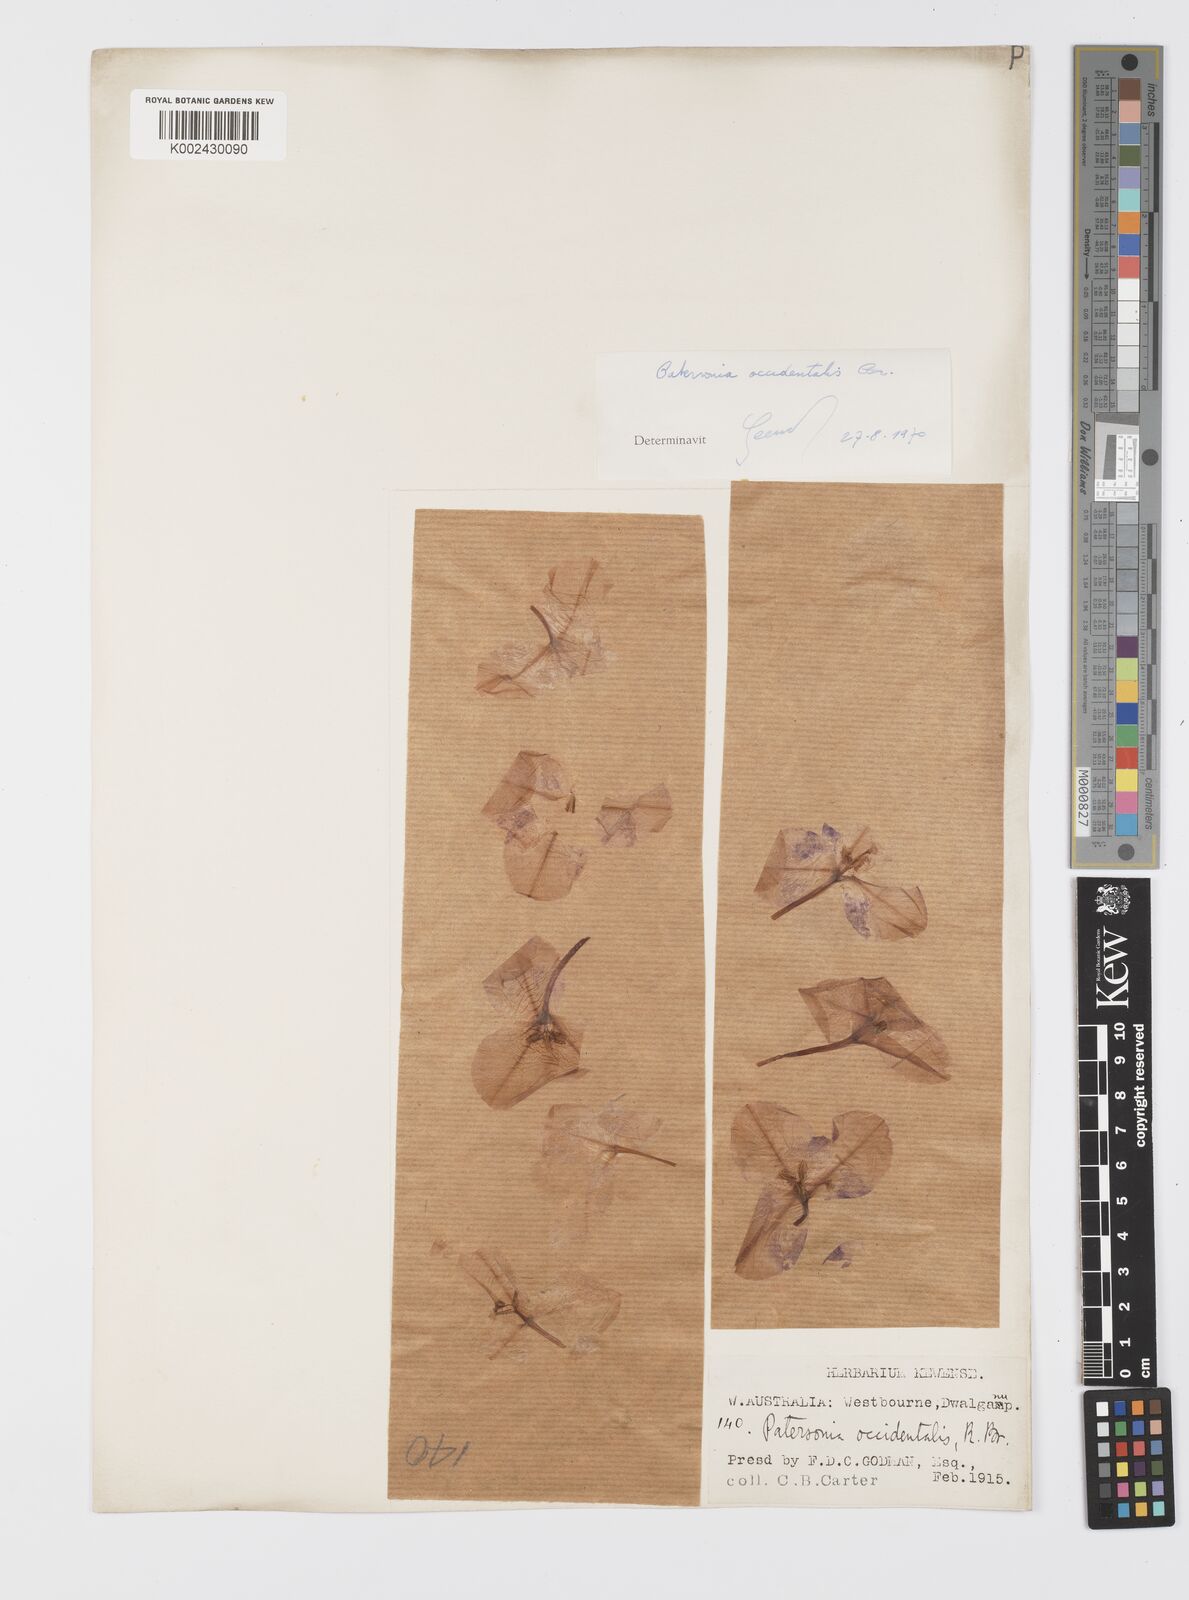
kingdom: Plantae
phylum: Tracheophyta
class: Liliopsida
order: Asparagales
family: Iridaceae
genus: Patersonia
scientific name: Patersonia occidentalis
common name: Long purple-flag
